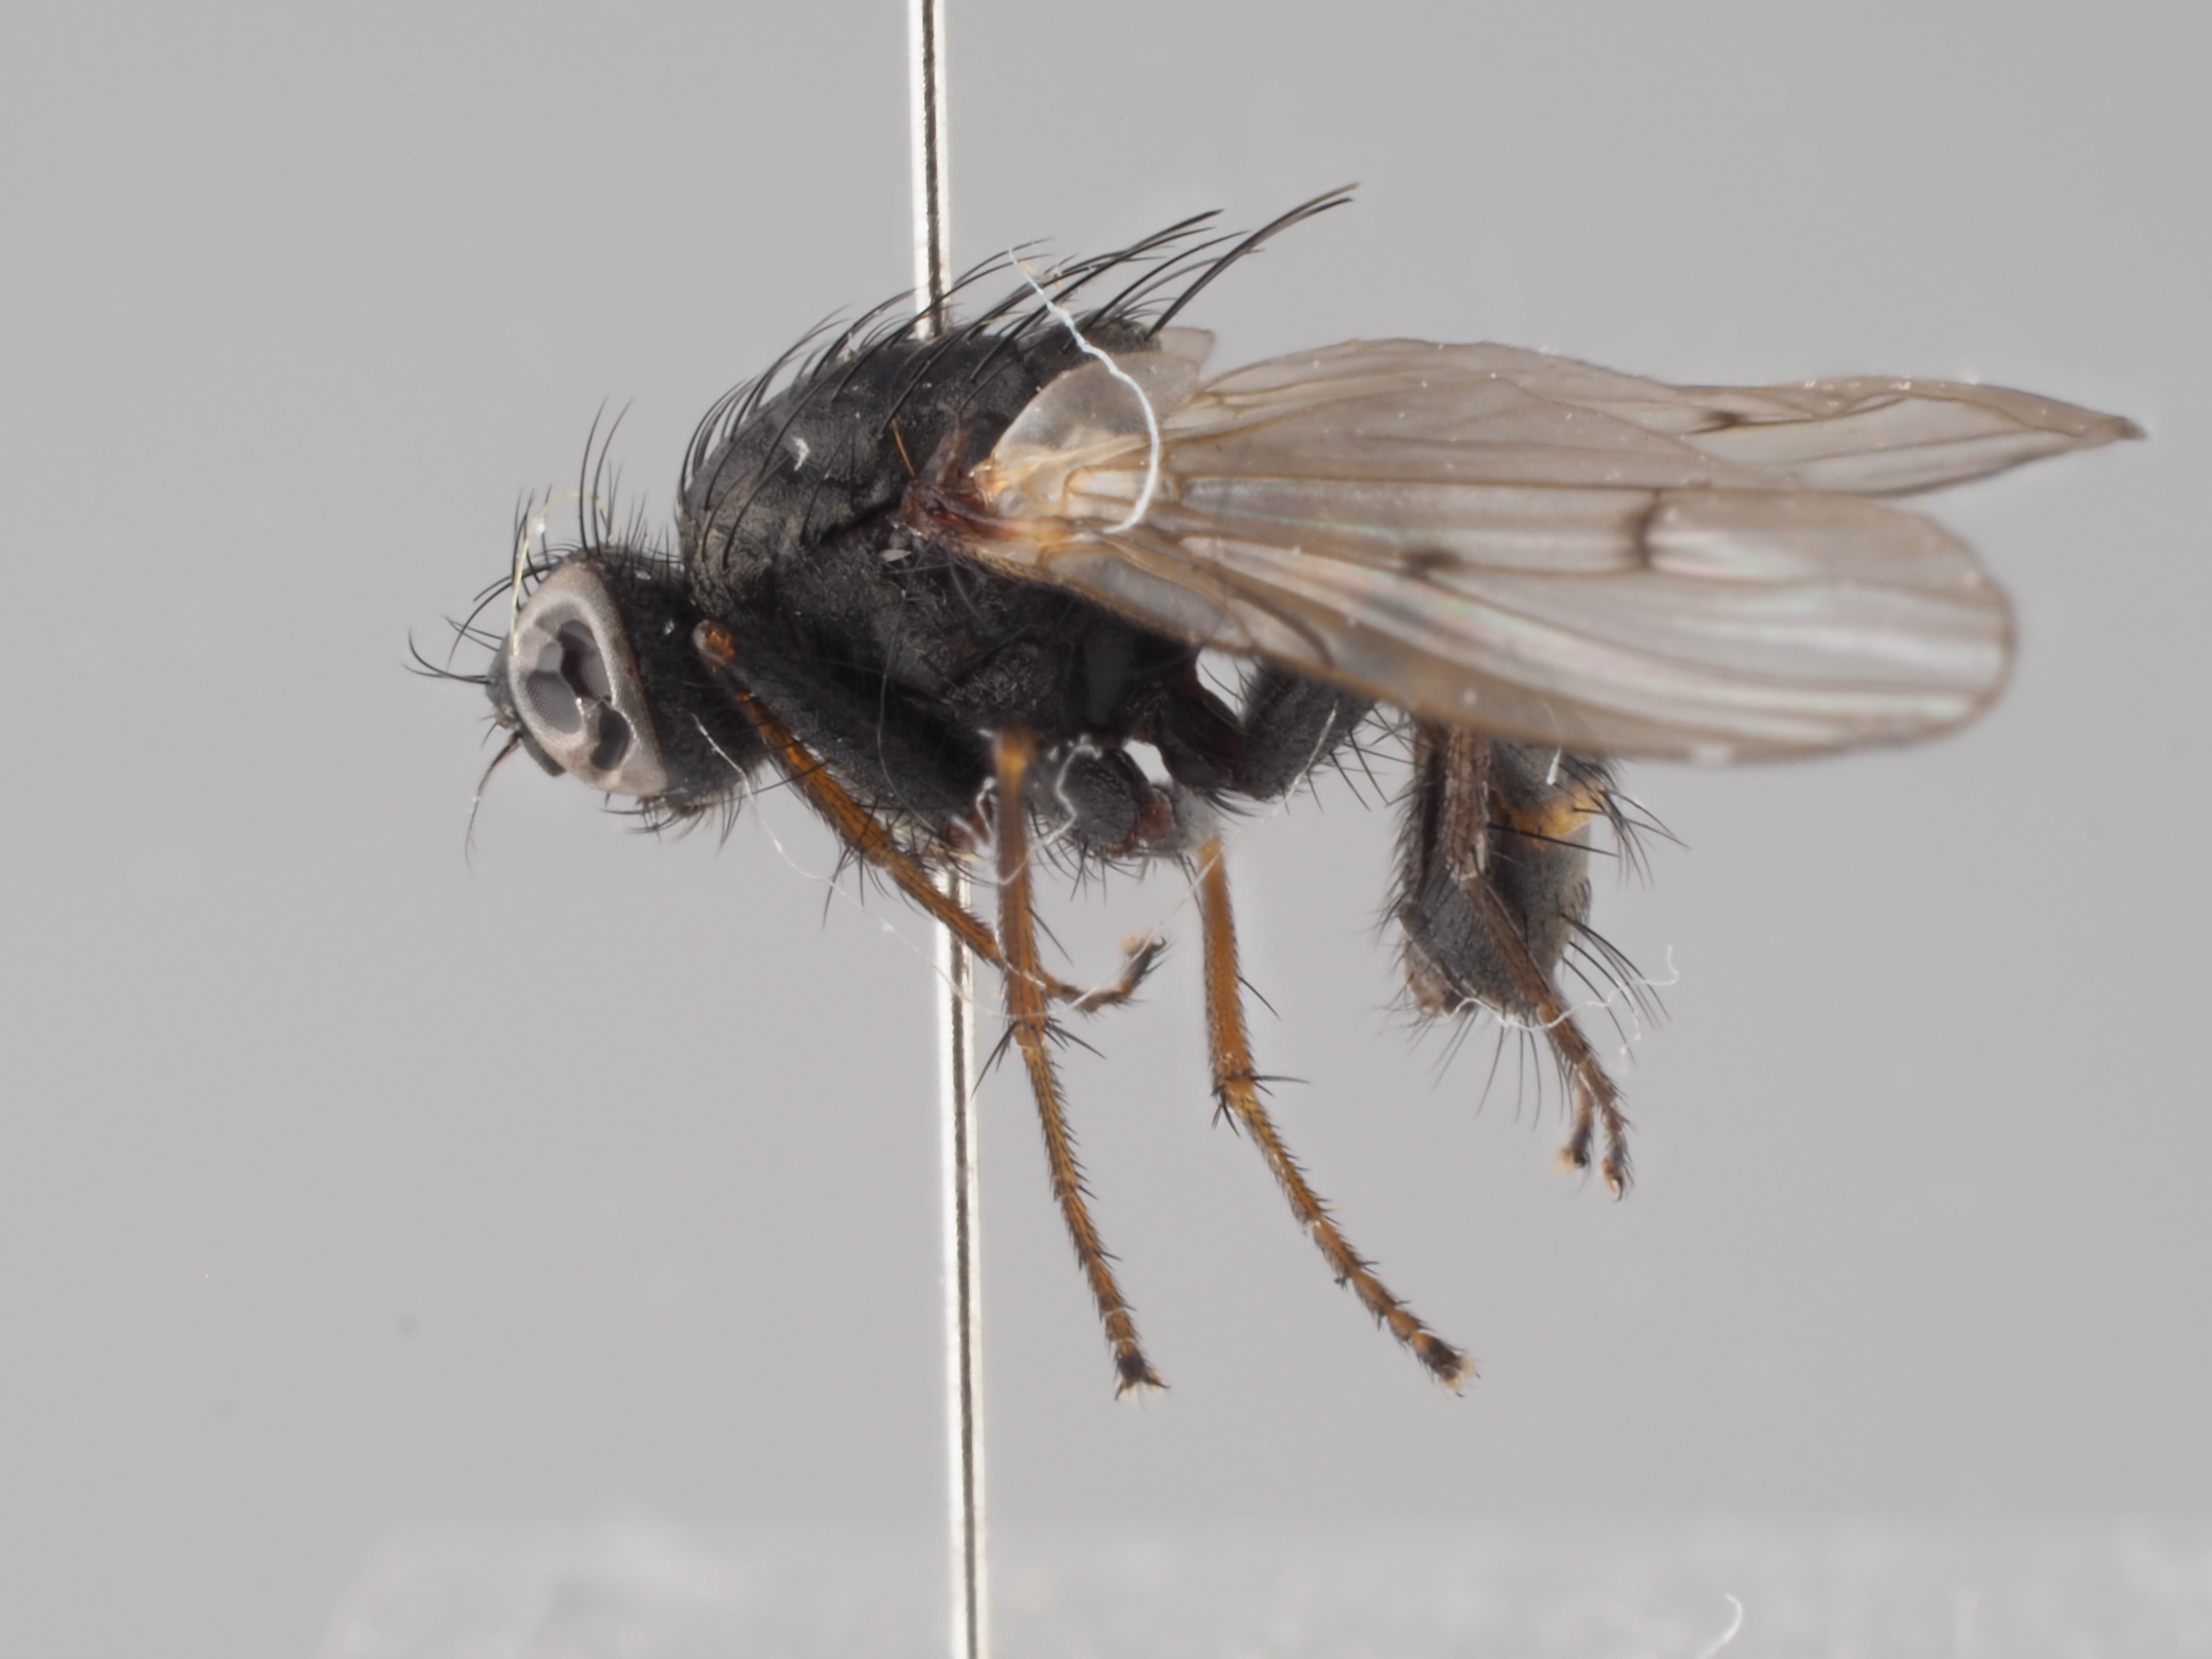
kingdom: Animalia
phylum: Arthropoda
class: Insecta
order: Diptera
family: Muscidae
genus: Caricea
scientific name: Caricea falculata
